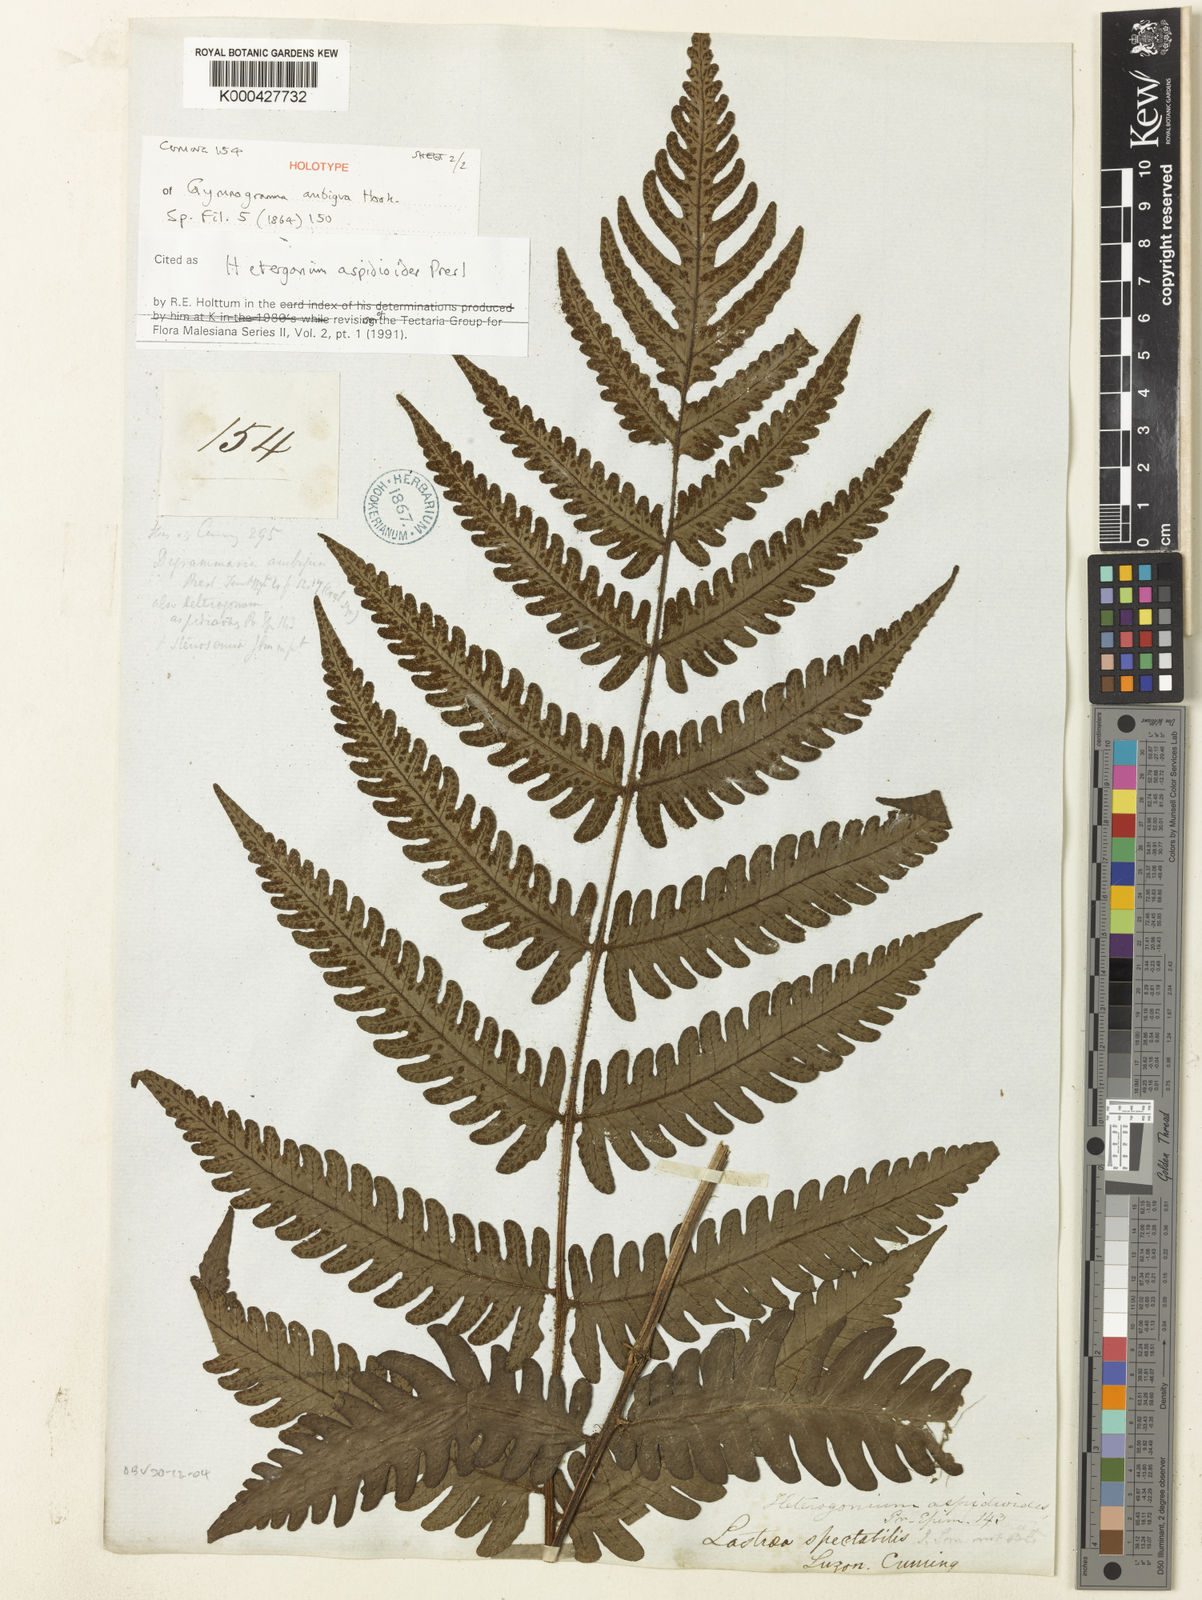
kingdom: Plantae
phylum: Tracheophyta
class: Polypodiopsida
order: Polypodiales
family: Tectariaceae
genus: Tectaria
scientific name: Tectaria aspidioides
